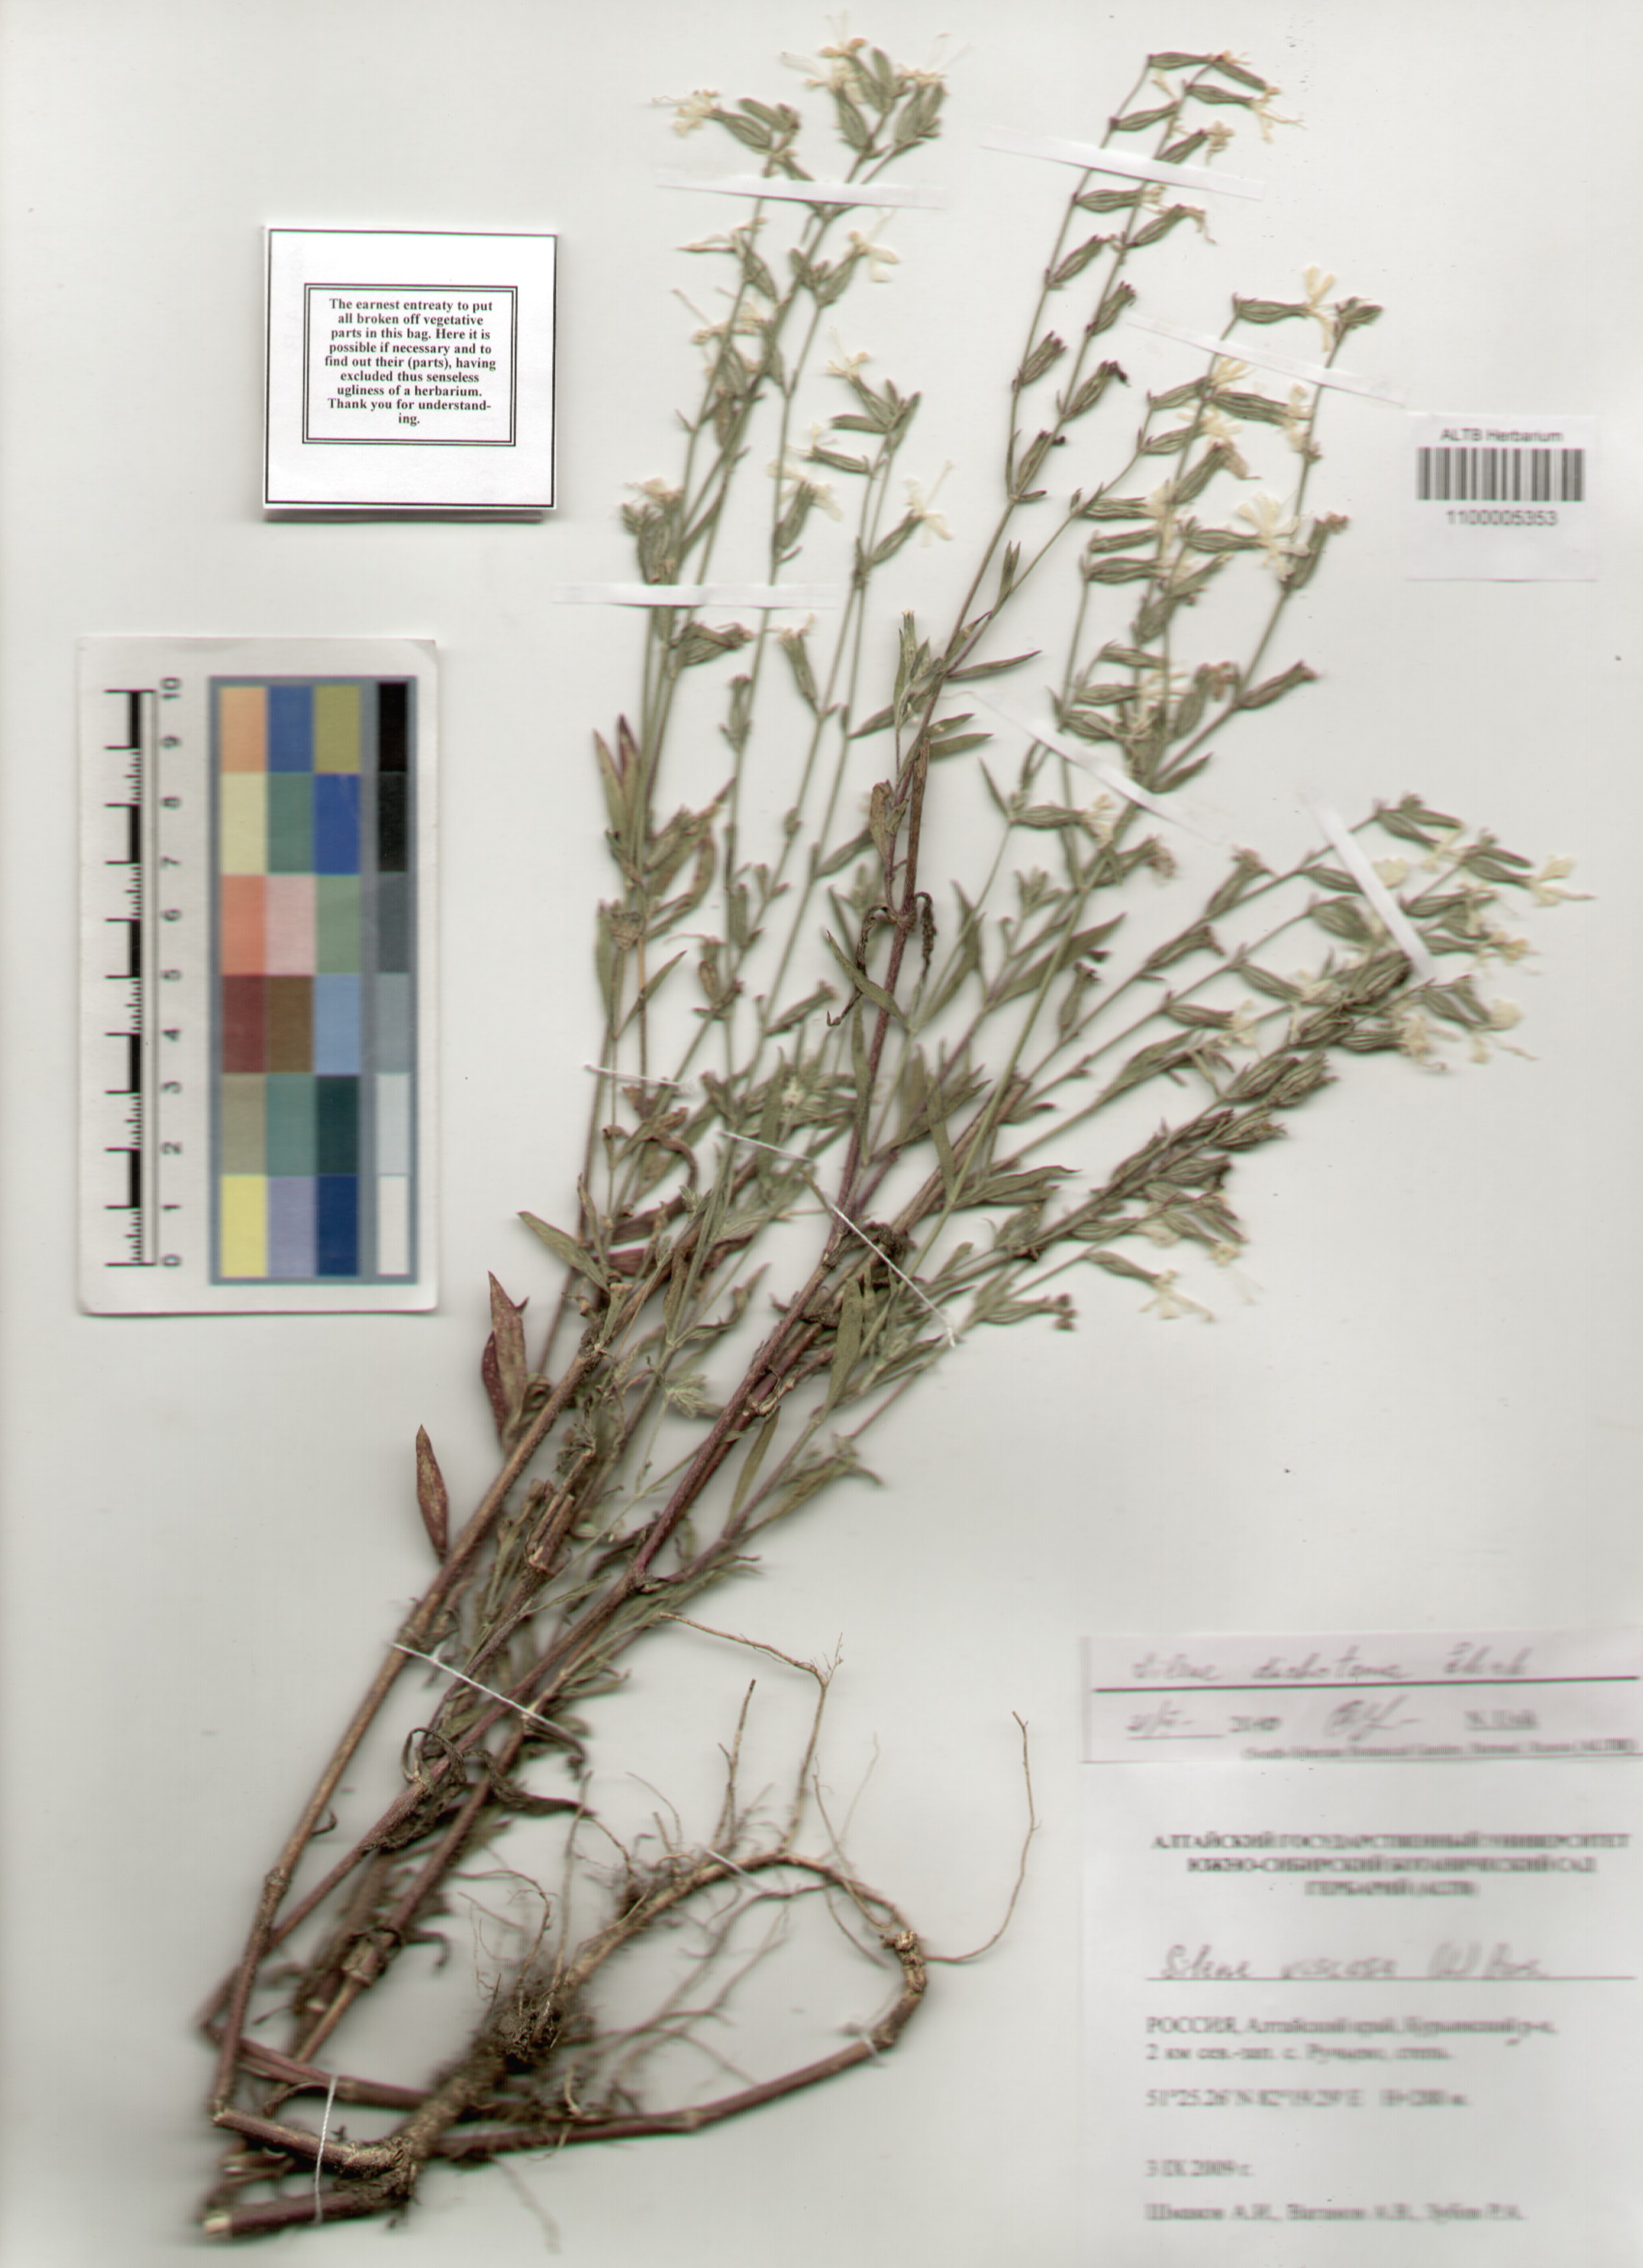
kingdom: Plantae
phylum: Tracheophyta
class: Magnoliopsida
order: Caryophyllales
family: Caryophyllaceae
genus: Silene
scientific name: Silene dichotoma
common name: Forked catchfly
